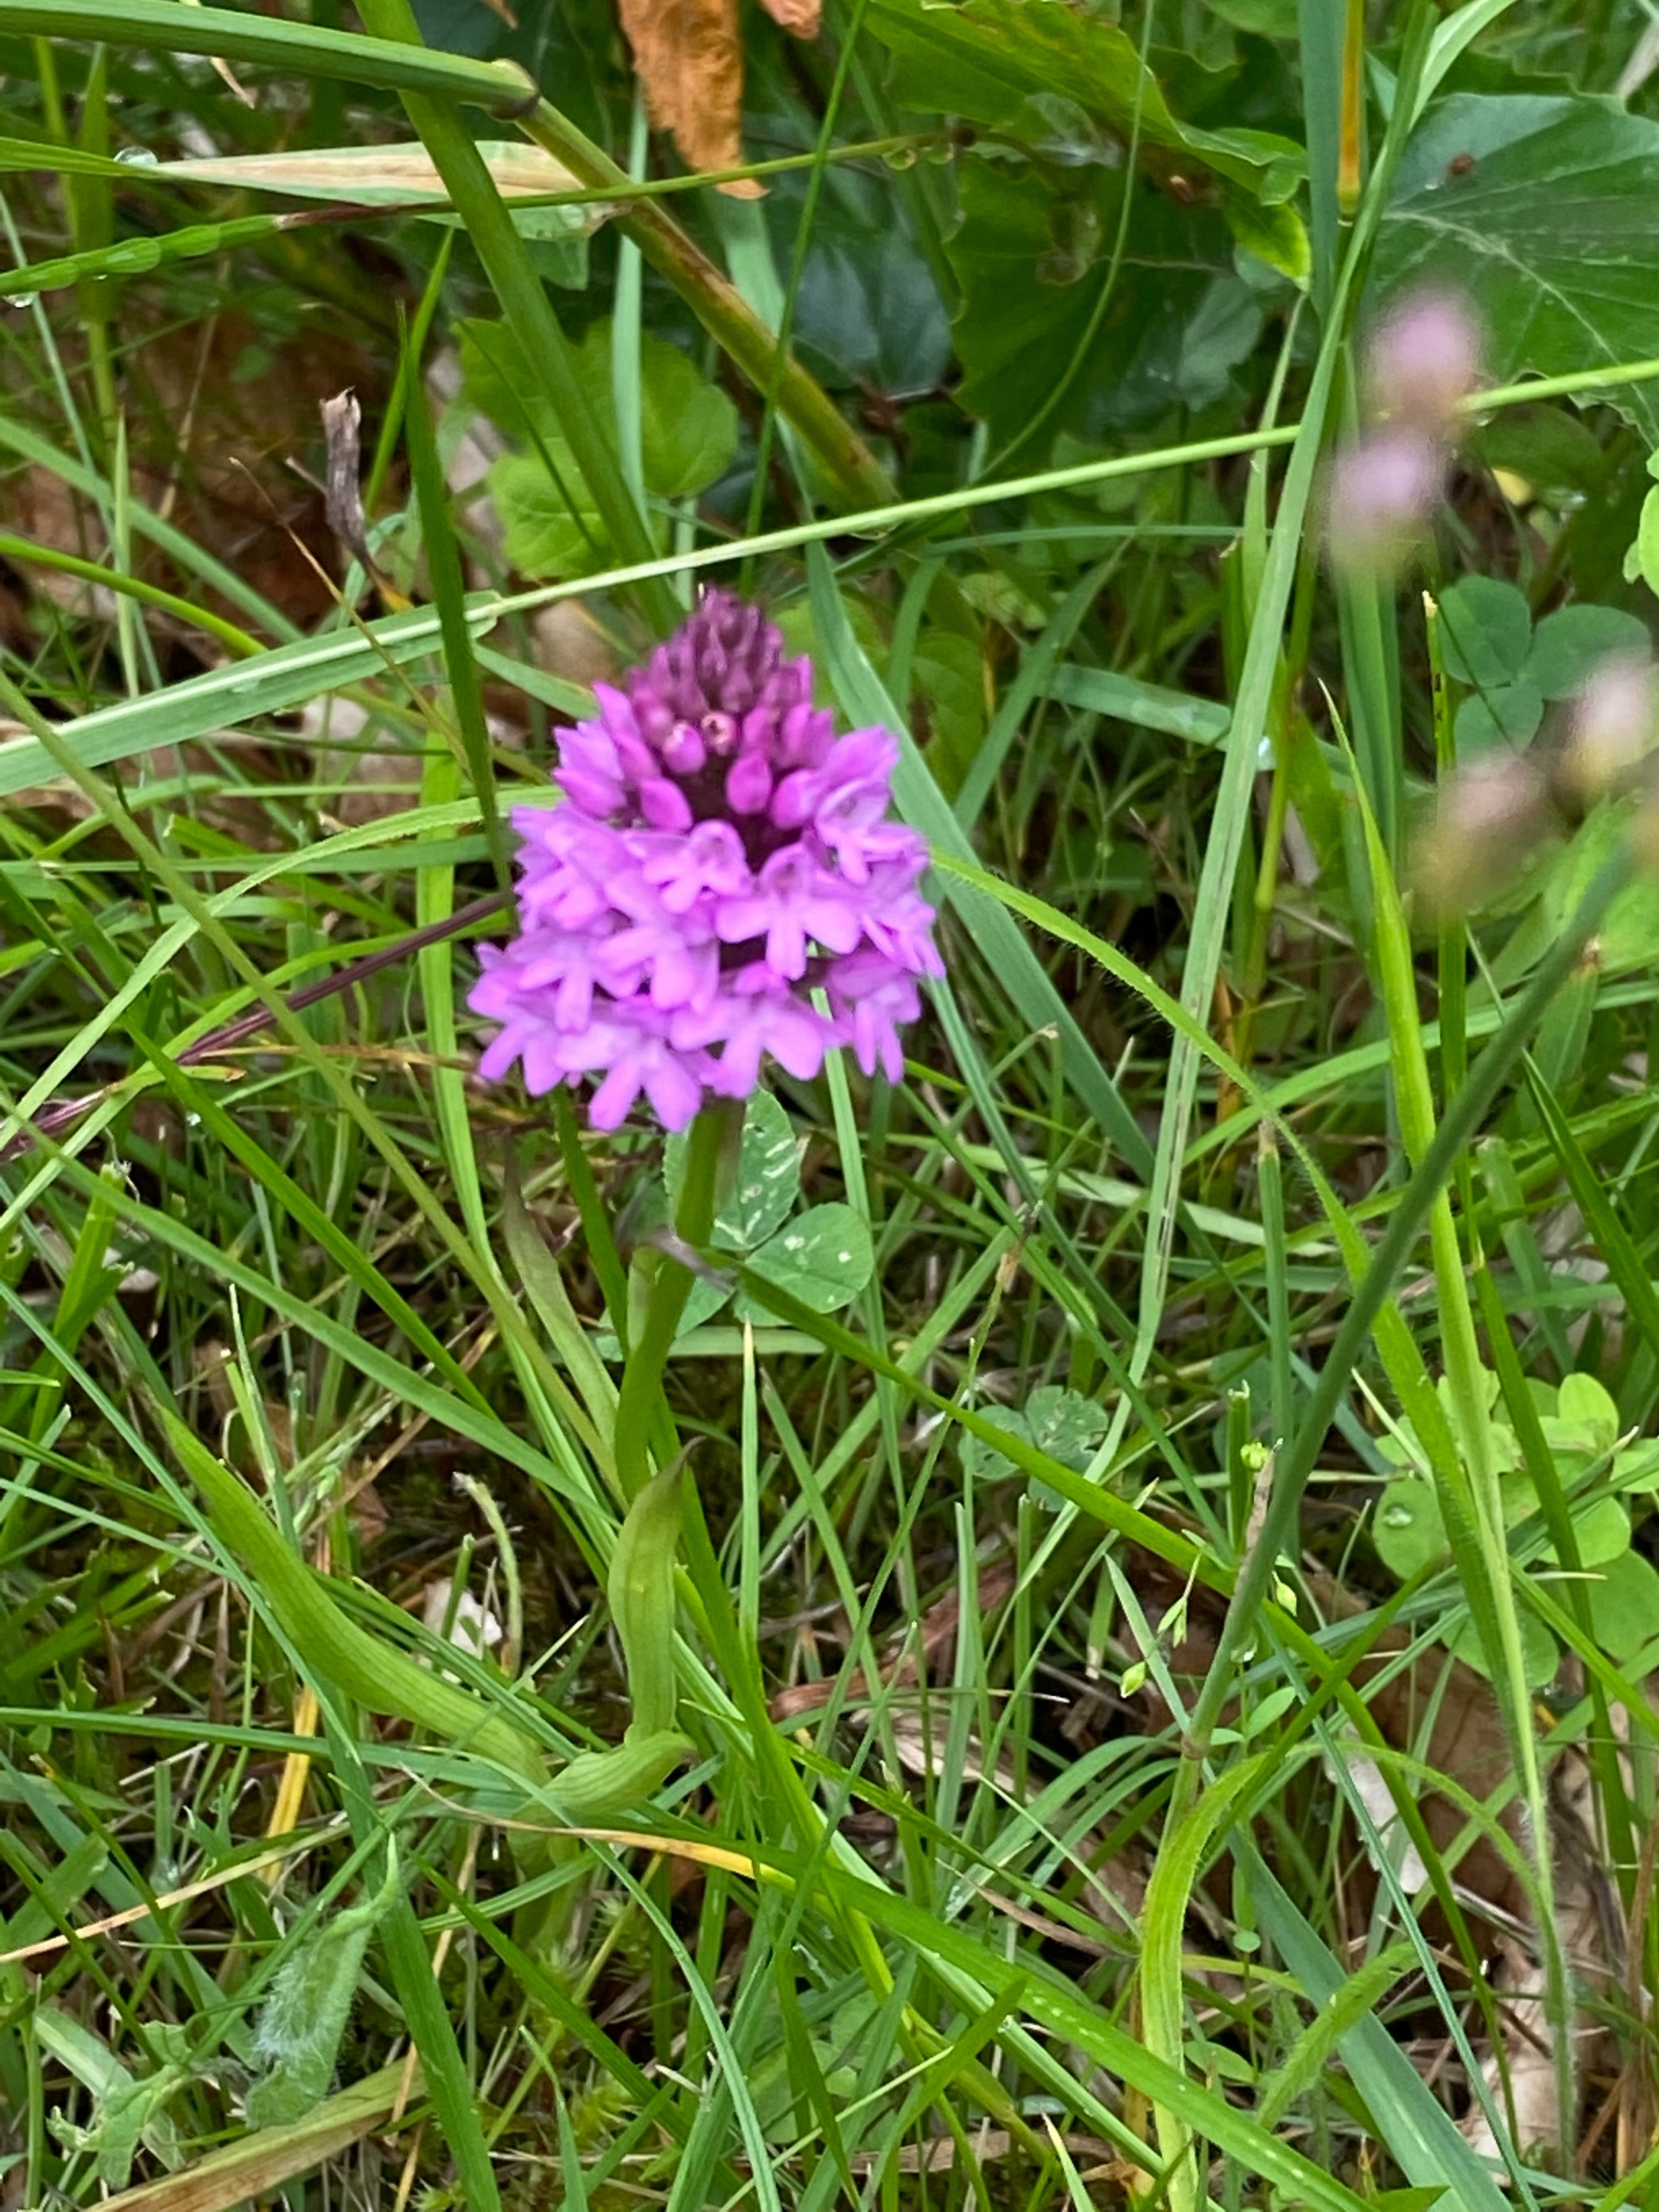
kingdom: Plantae
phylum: Tracheophyta
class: Liliopsida
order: Asparagales
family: Orchidaceae
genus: Anacamptis
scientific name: Anacamptis pyramidalis
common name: Horndrager
